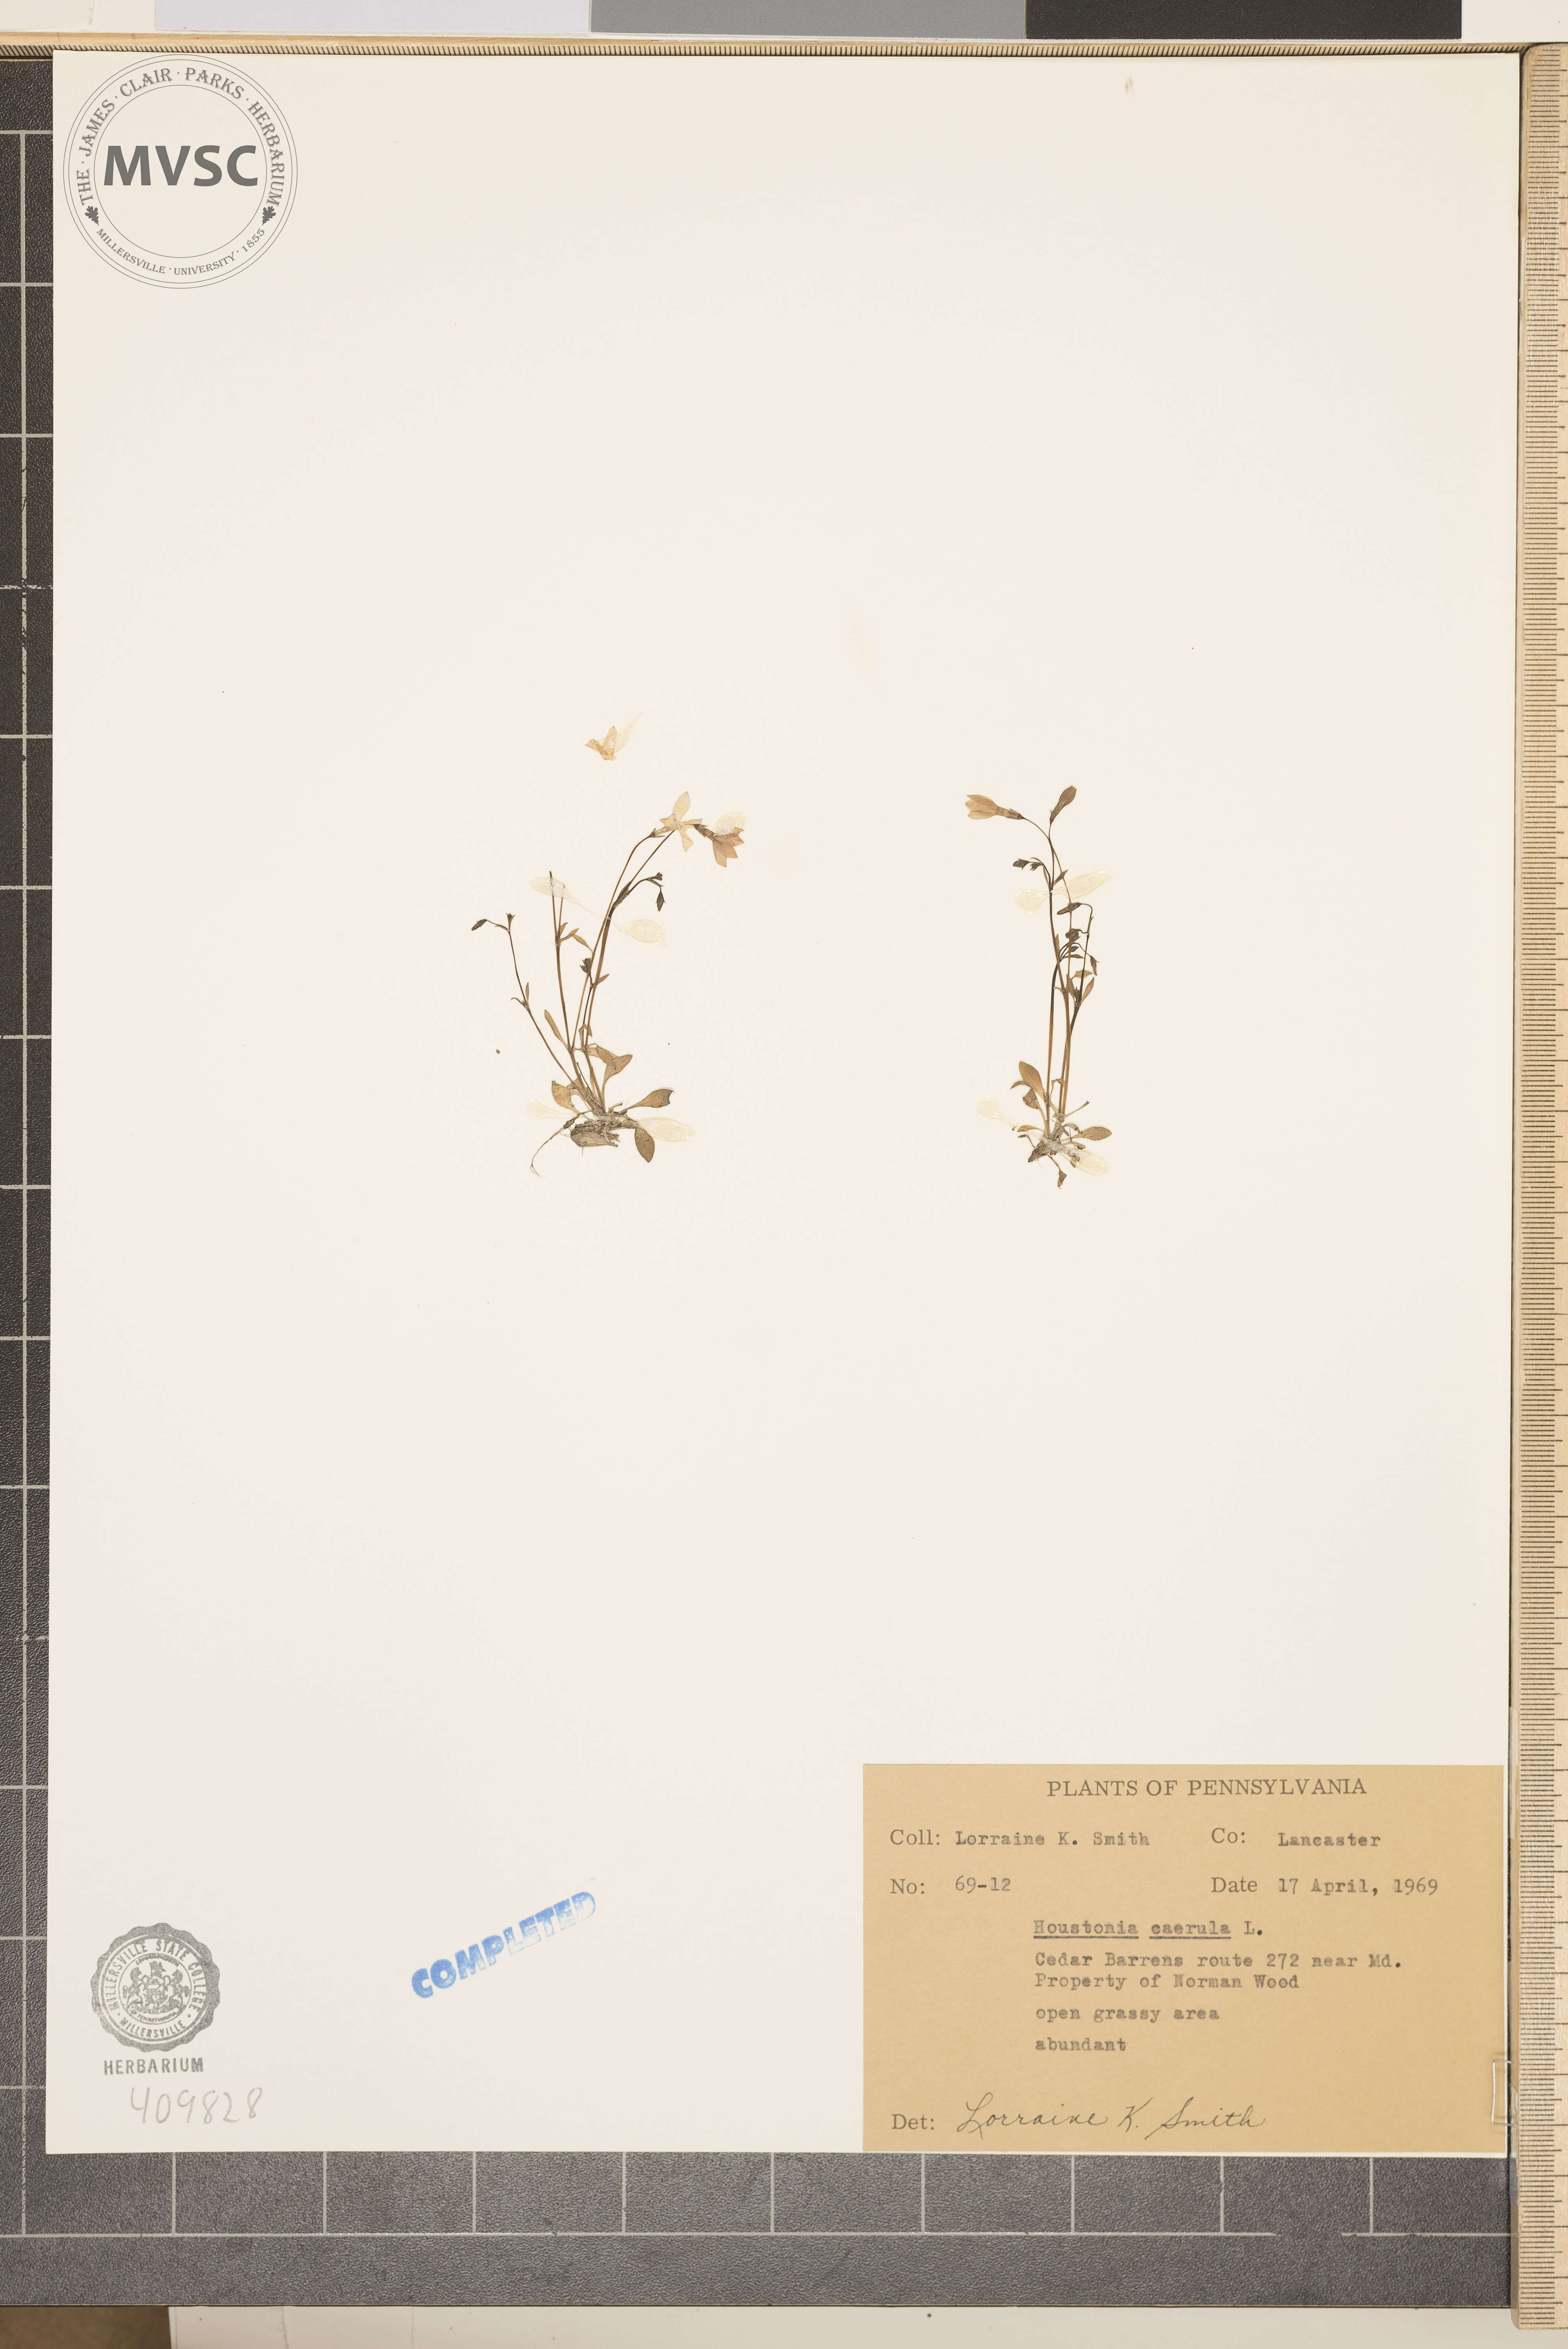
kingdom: Plantae
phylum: Tracheophyta
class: Magnoliopsida
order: Gentianales
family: Rubiaceae
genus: Houstonia
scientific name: Houstonia caerulea
